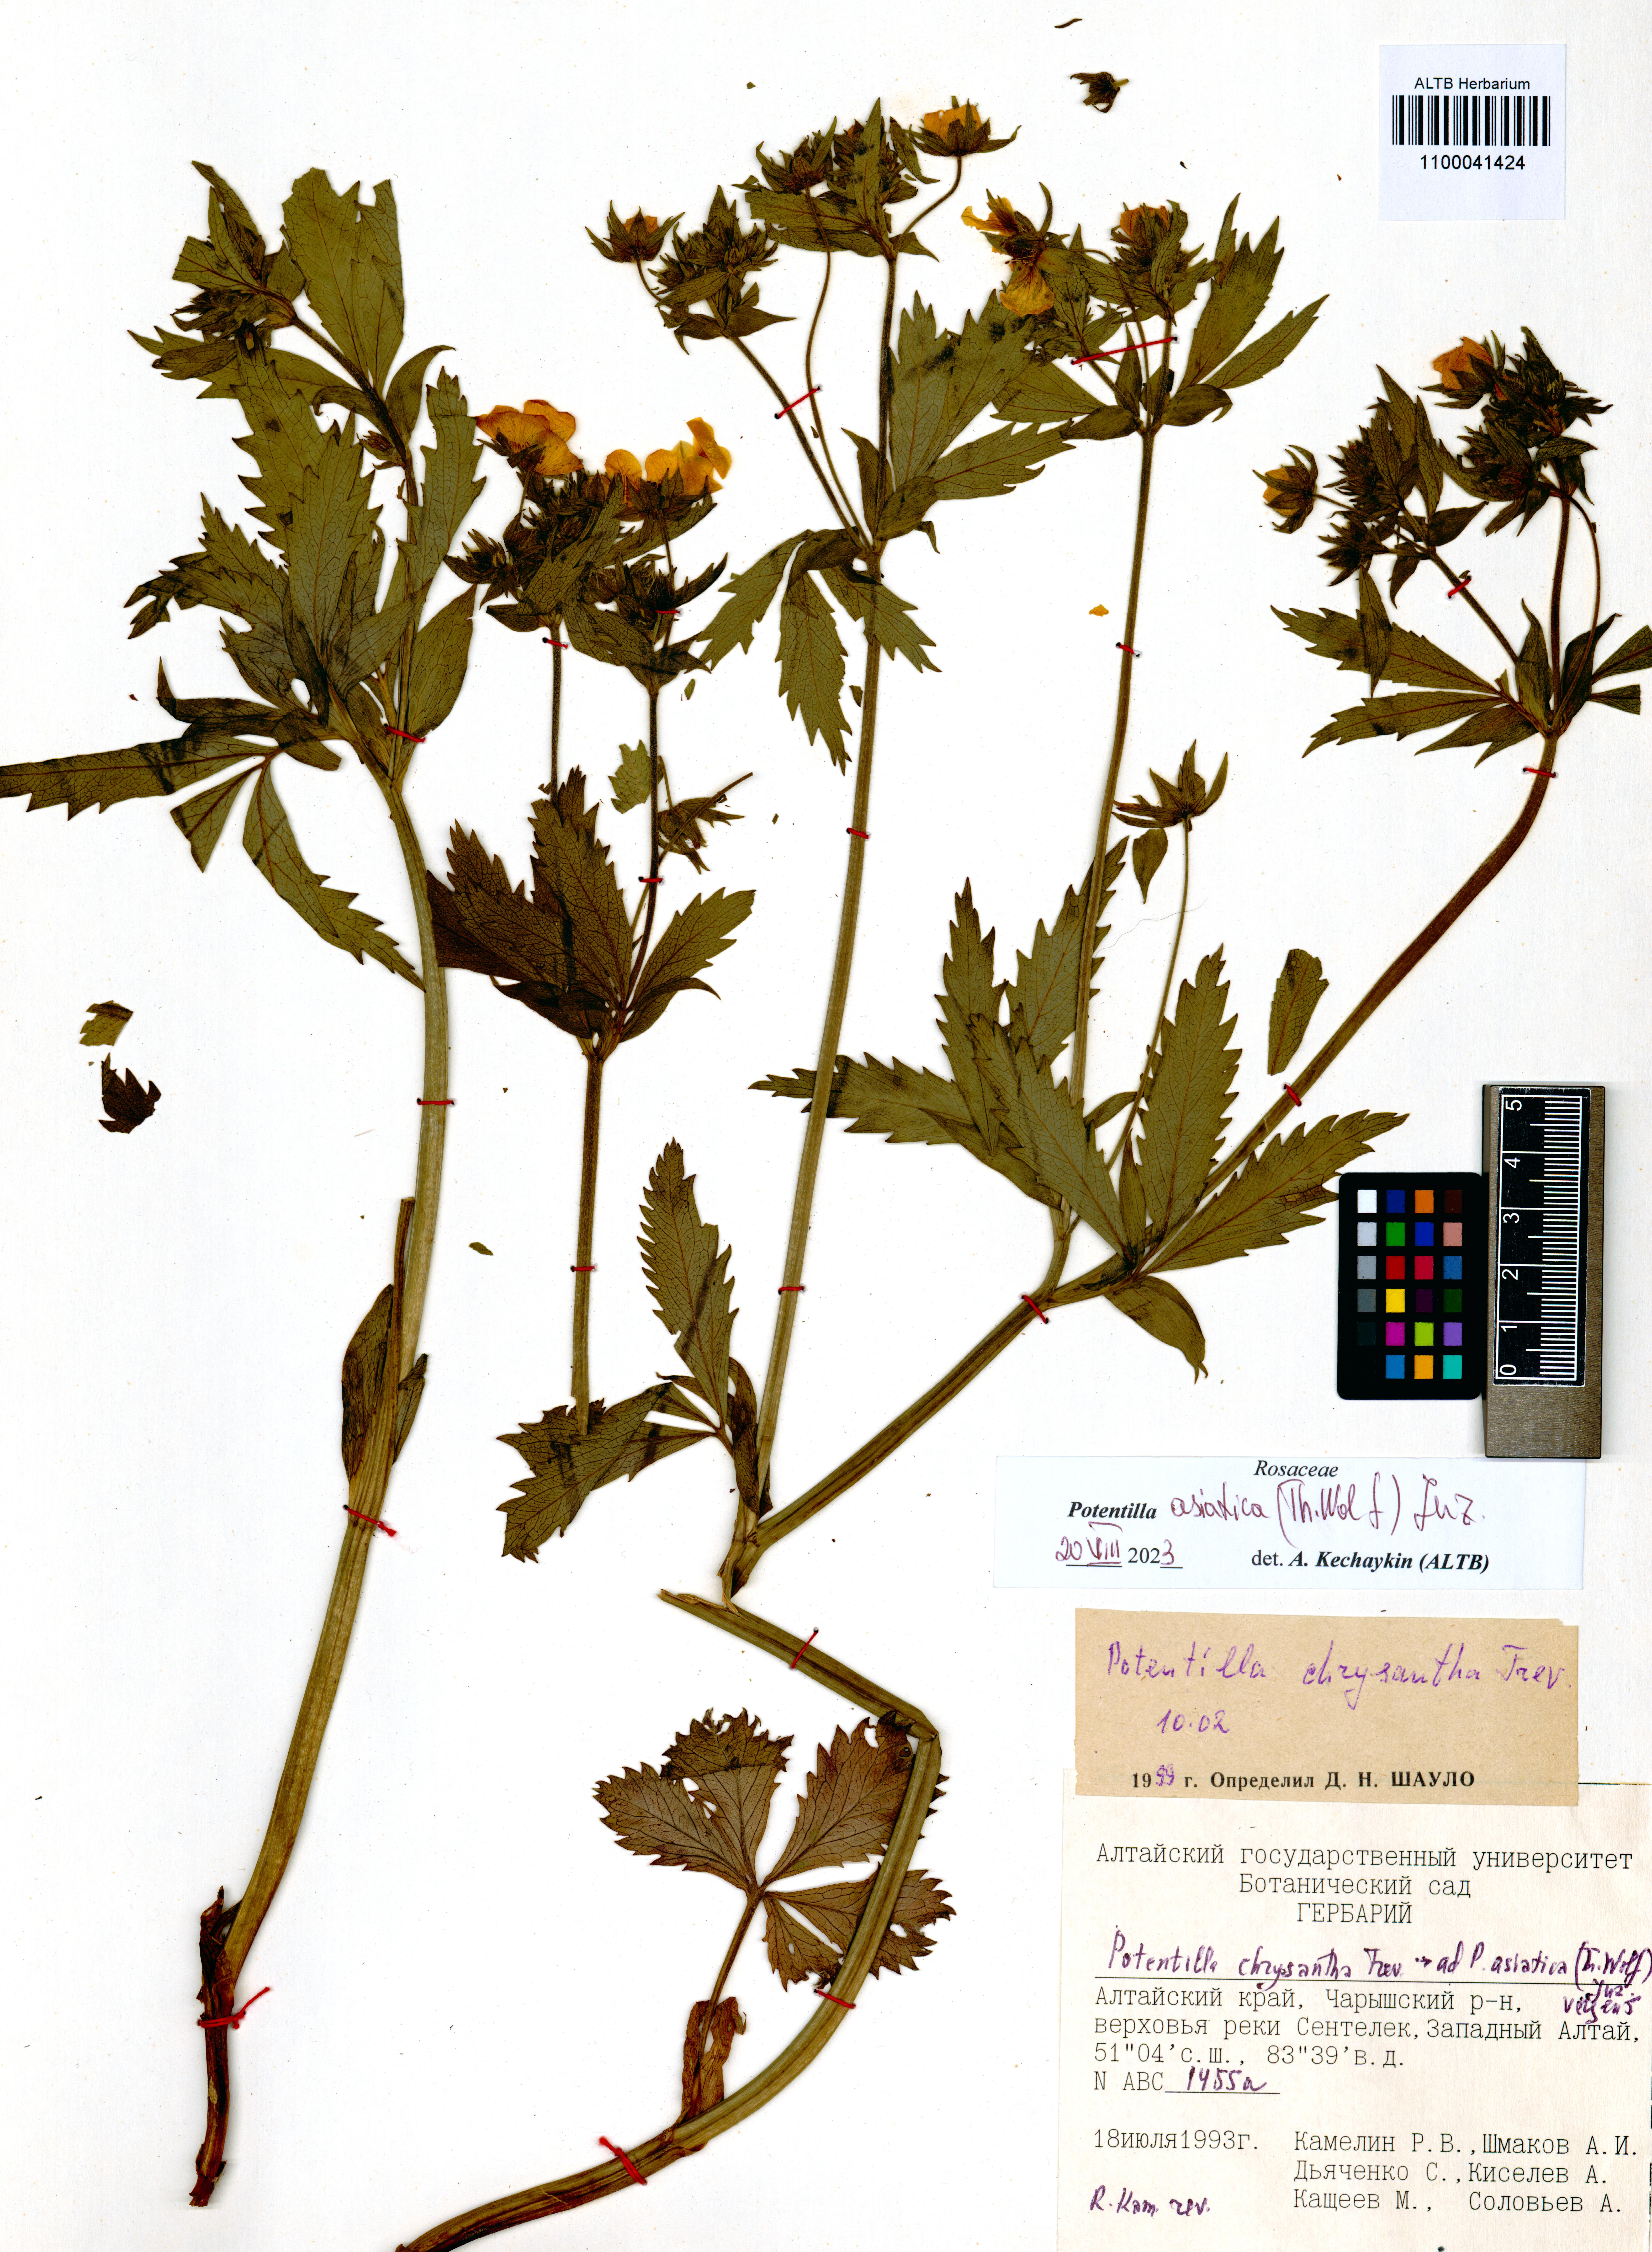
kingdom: Plantae
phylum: Tracheophyta
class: Magnoliopsida
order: Rosales
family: Rosaceae
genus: Potentilla
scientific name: Potentilla asiatica
